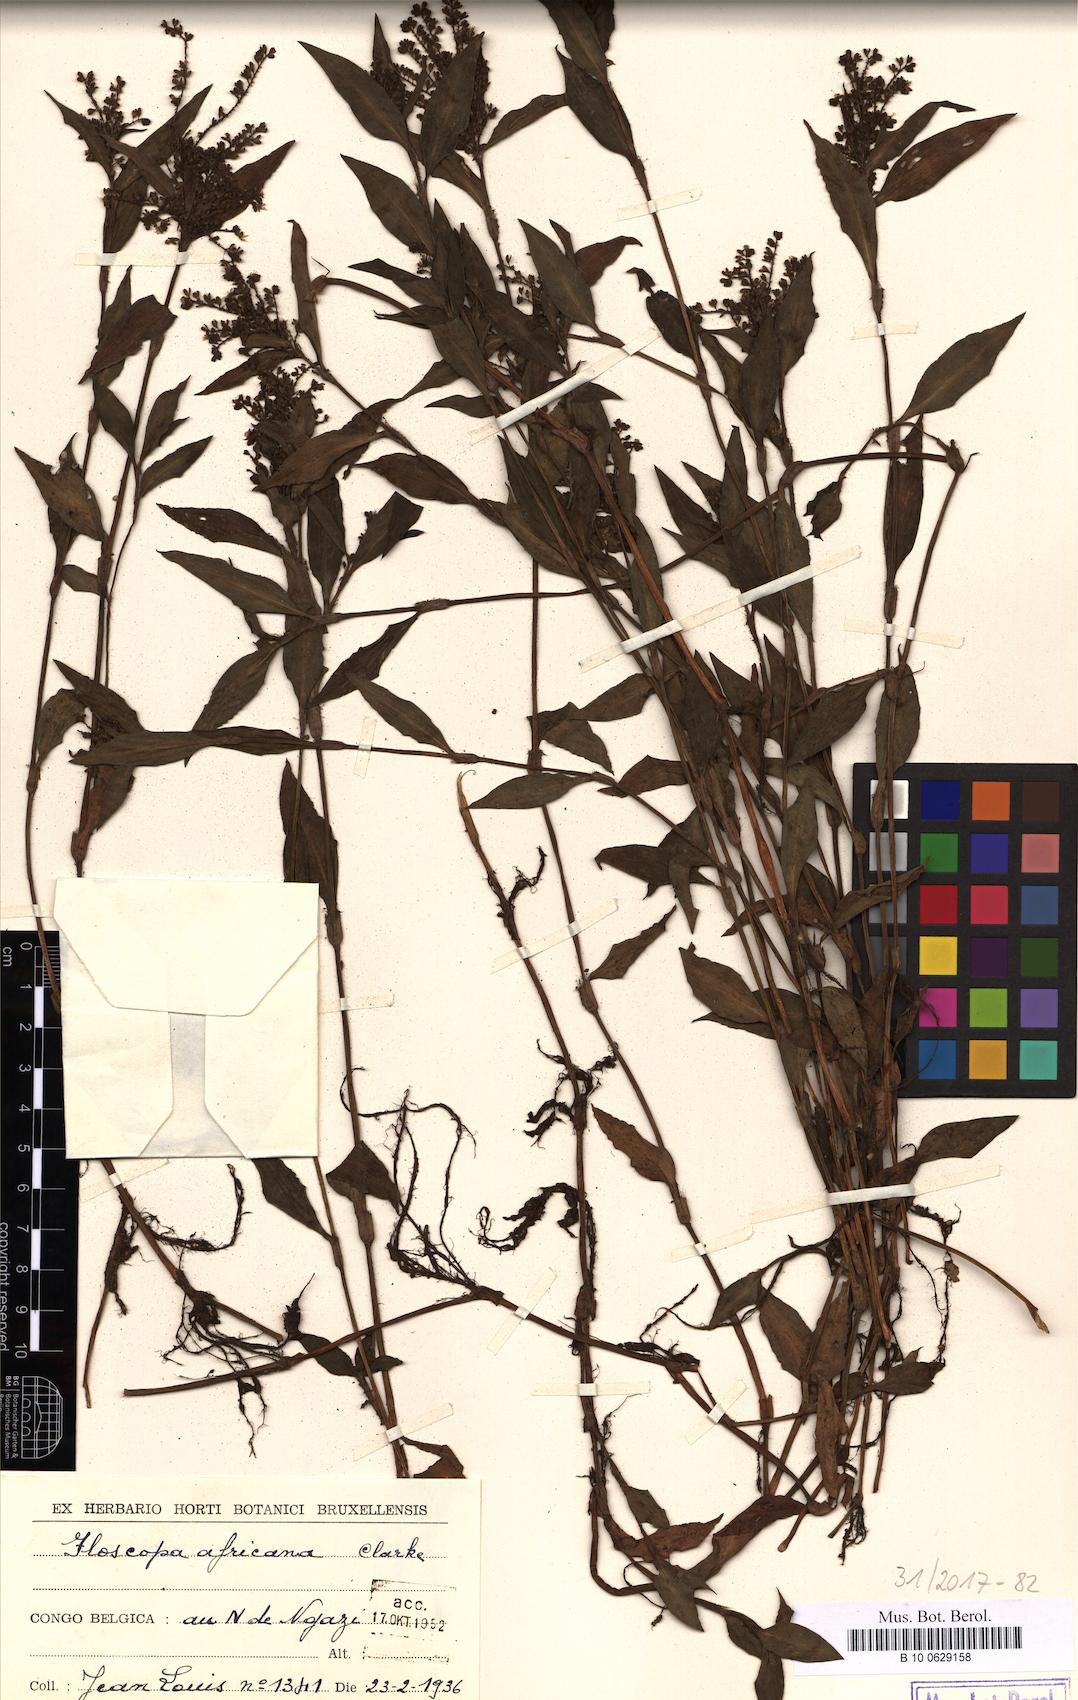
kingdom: Plantae
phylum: Tracheophyta
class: Liliopsida
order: Commelinales
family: Commelinaceae
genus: Floscopa
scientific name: Floscopa africana
